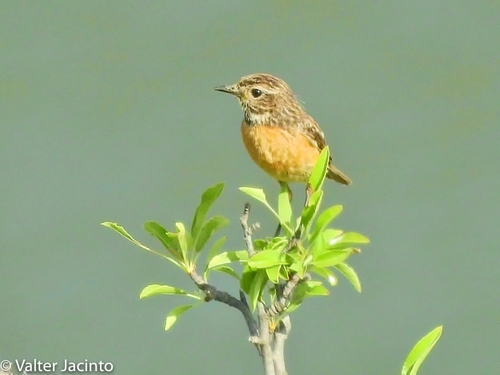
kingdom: Animalia
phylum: Chordata
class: Aves
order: Passeriformes
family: Muscicapidae
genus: Saxicola
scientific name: Saxicola rubicola
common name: European stonechat
